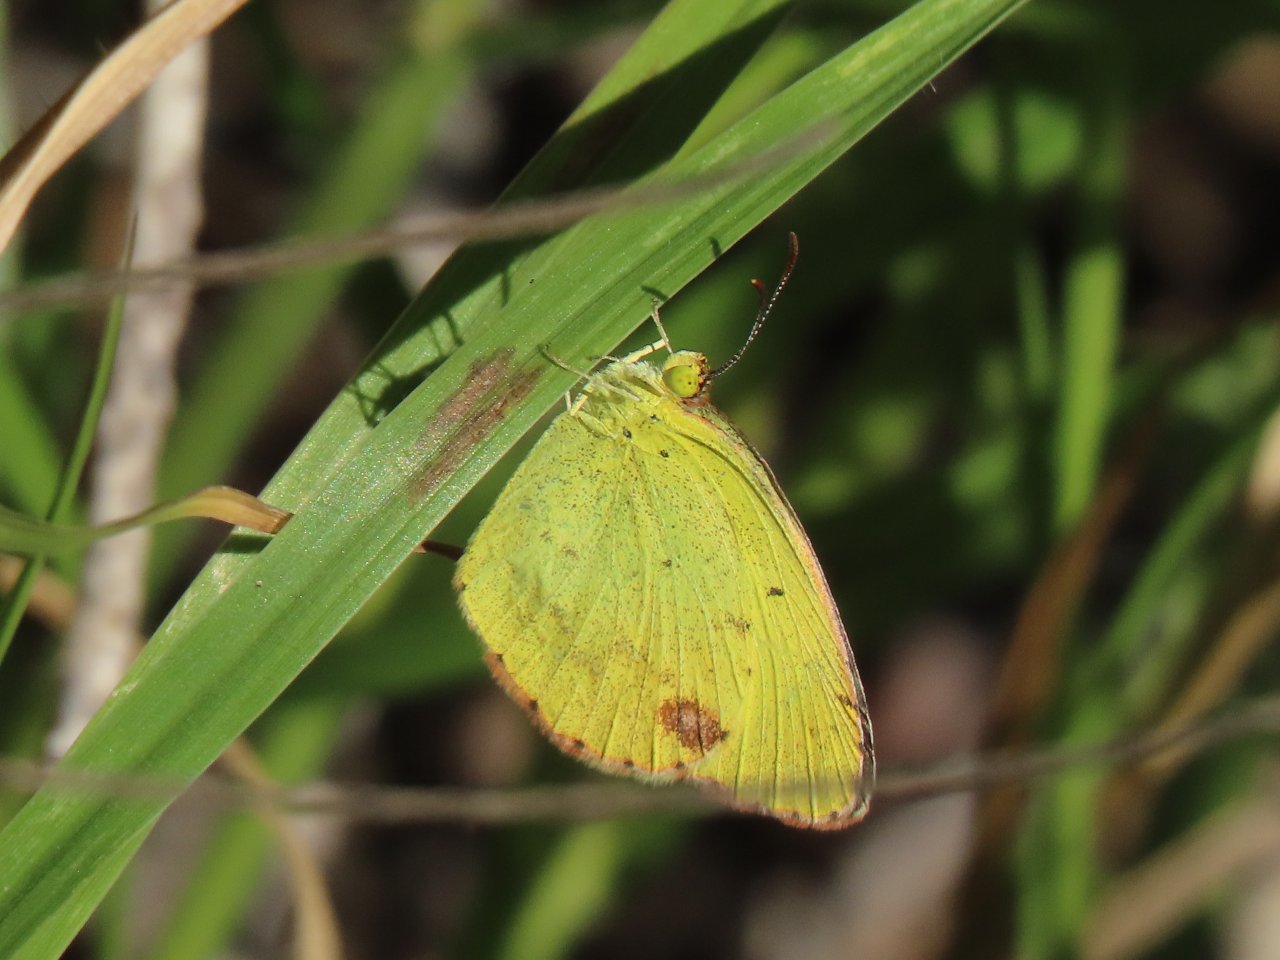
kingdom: Animalia
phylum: Arthropoda
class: Insecta
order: Lepidoptera
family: Pieridae
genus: Pyrisitia
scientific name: Pyrisitia lisa
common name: Little Yellow
